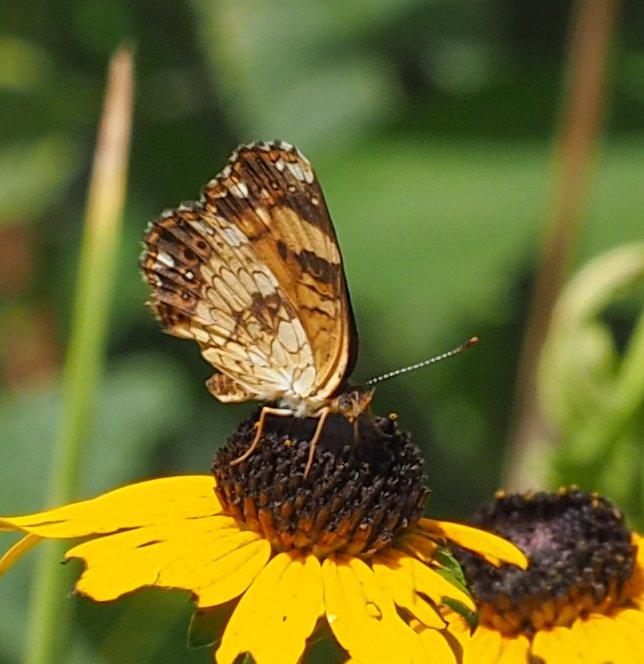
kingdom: Animalia
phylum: Arthropoda
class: Insecta
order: Lepidoptera
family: Nymphalidae
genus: Chlosyne
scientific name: Chlosyne nycteis
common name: Silvery Checkerspot
